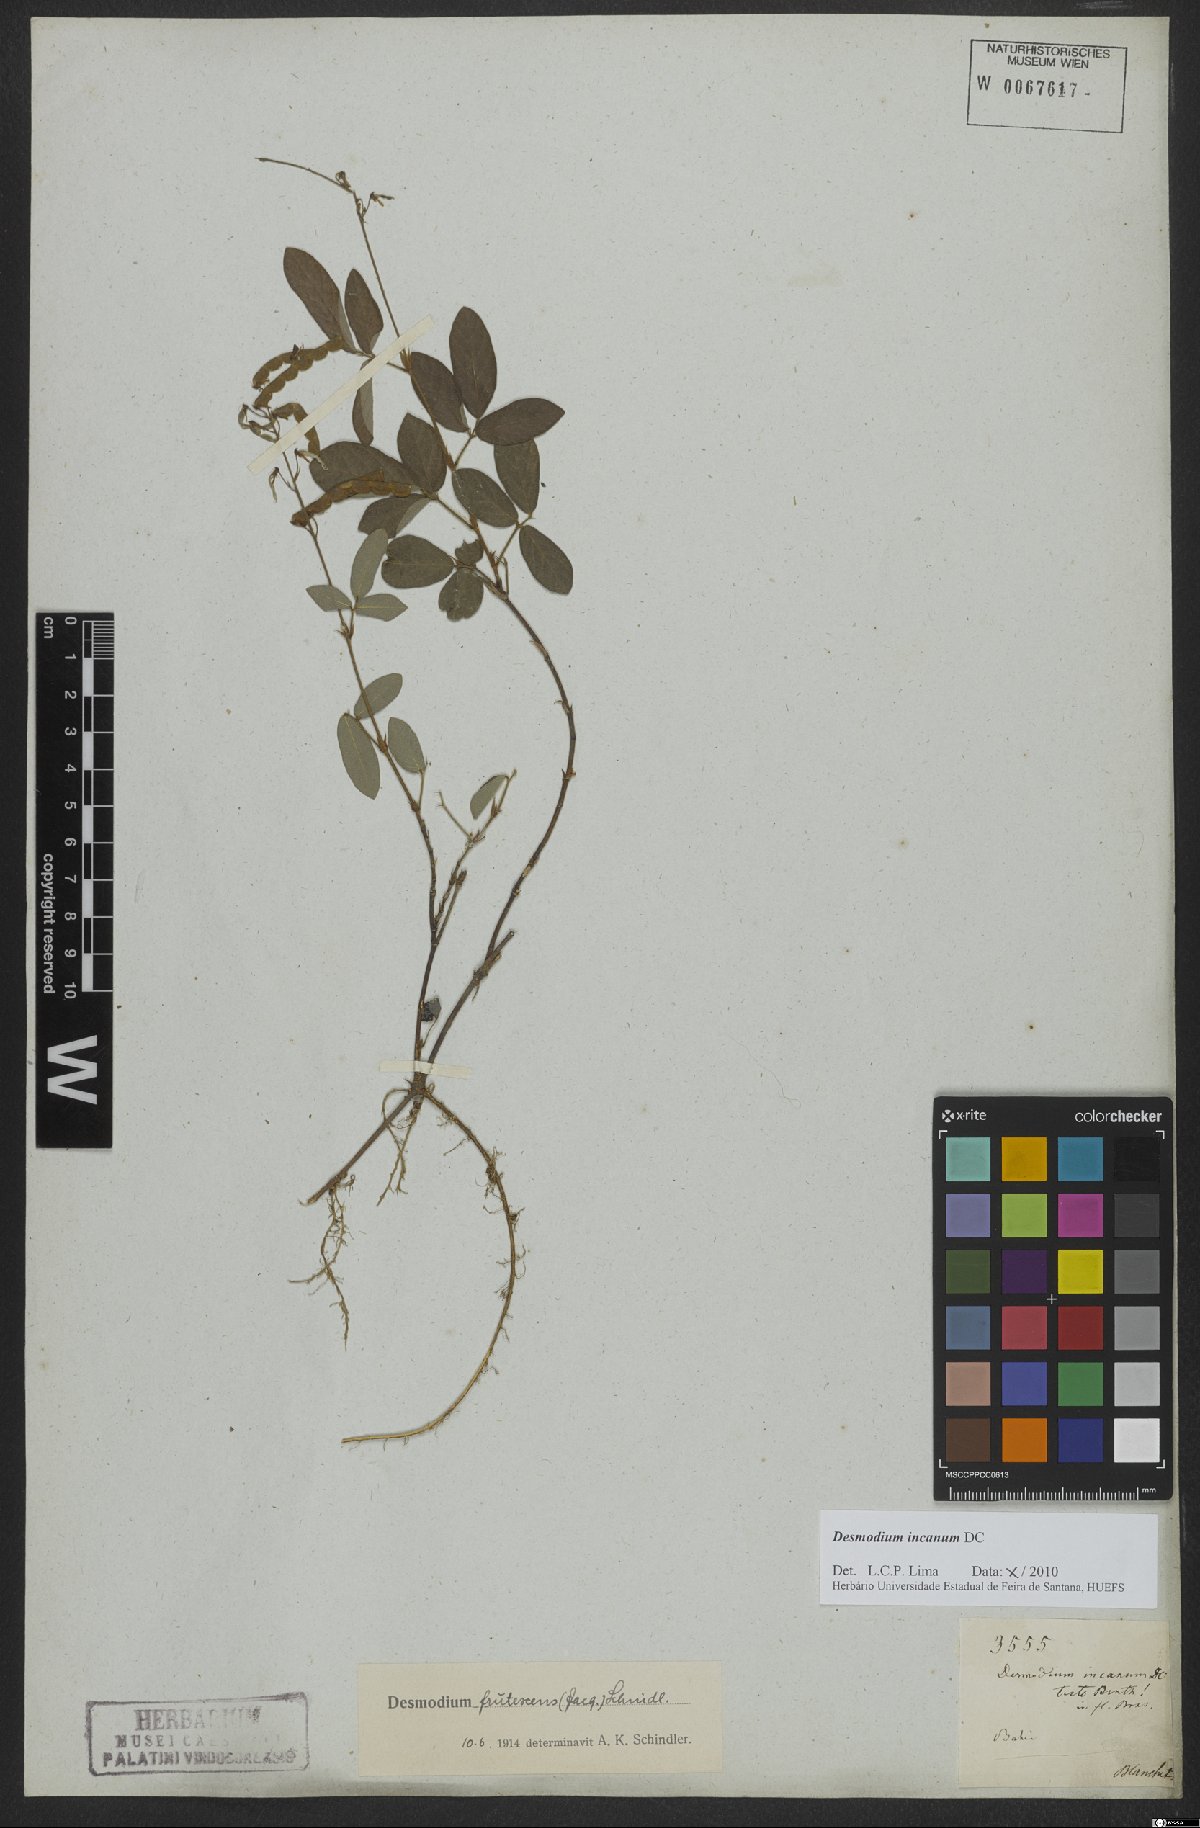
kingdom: Plantae
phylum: Tracheophyta
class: Magnoliopsida
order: Fabales
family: Fabaceae
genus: Desmodium
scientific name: Desmodium incanum
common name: Tickclover
